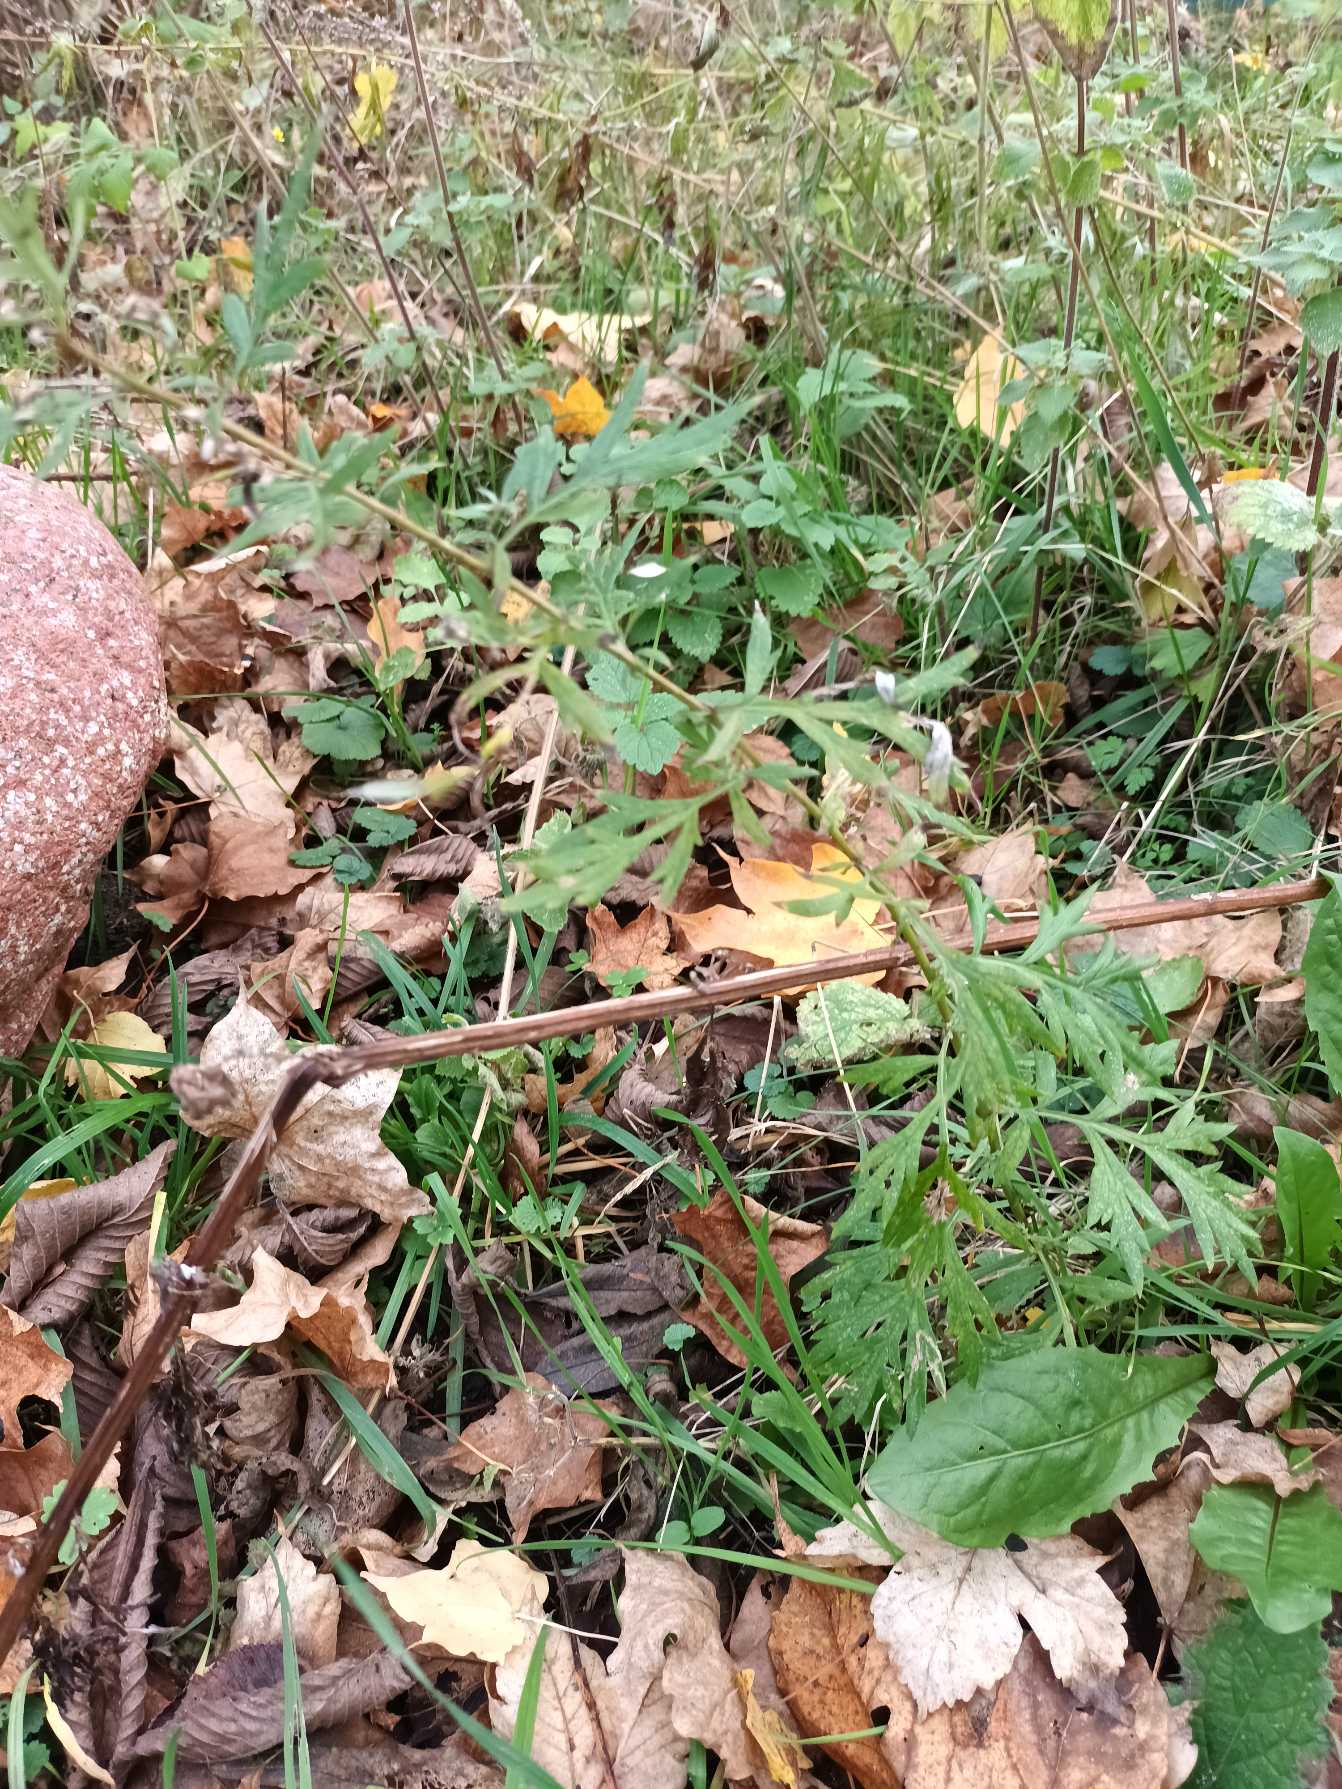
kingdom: Plantae
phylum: Tracheophyta
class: Magnoliopsida
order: Asterales
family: Asteraceae
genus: Artemisia
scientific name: Artemisia vulgaris
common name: Grå-bynke
